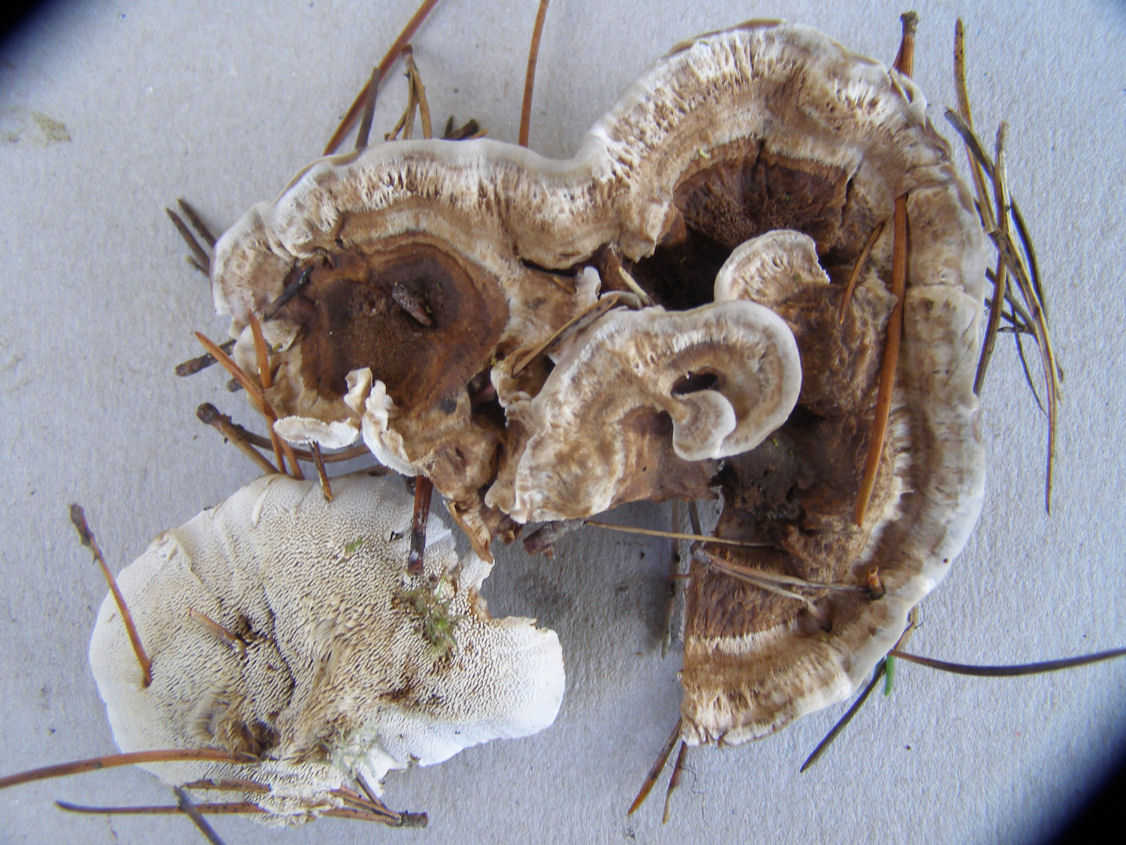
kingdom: Fungi
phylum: Basidiomycota
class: Agaricomycetes
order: Thelephorales
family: Thelephoraceae
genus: Phellodon
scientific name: Phellodon tomentosus
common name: tragtformet duftpigsvamp
